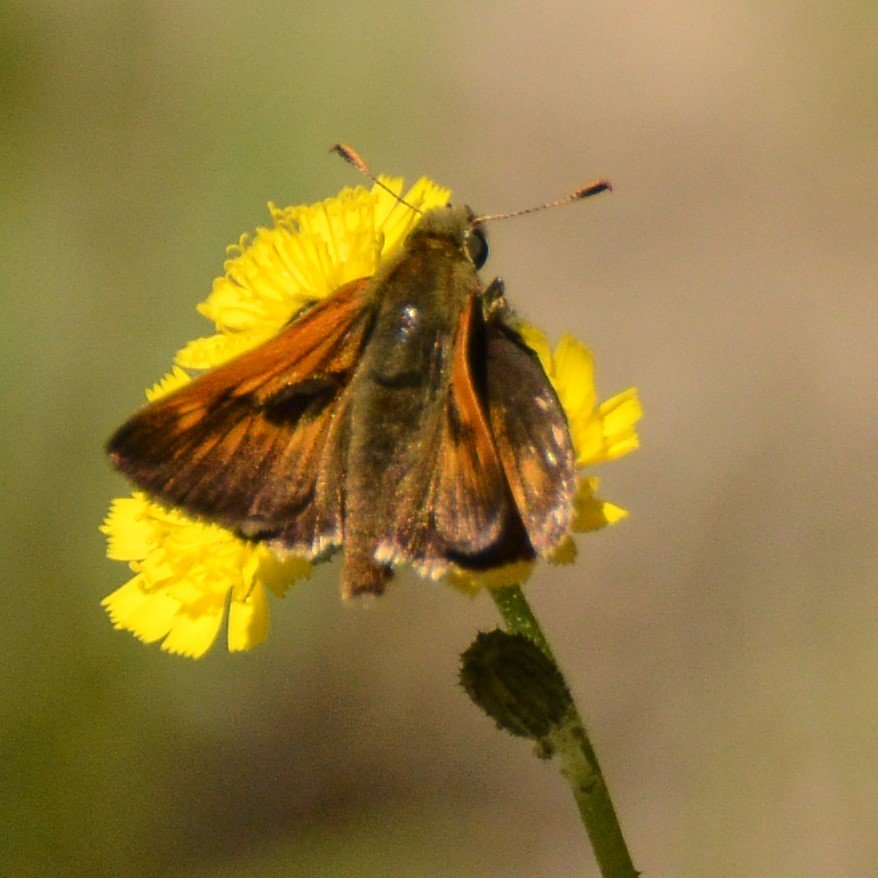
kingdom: Animalia
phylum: Arthropoda
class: Insecta
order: Lepidoptera
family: Hesperiidae
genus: Polites
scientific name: Polites themistocles
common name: Tawny-edged Skipper
